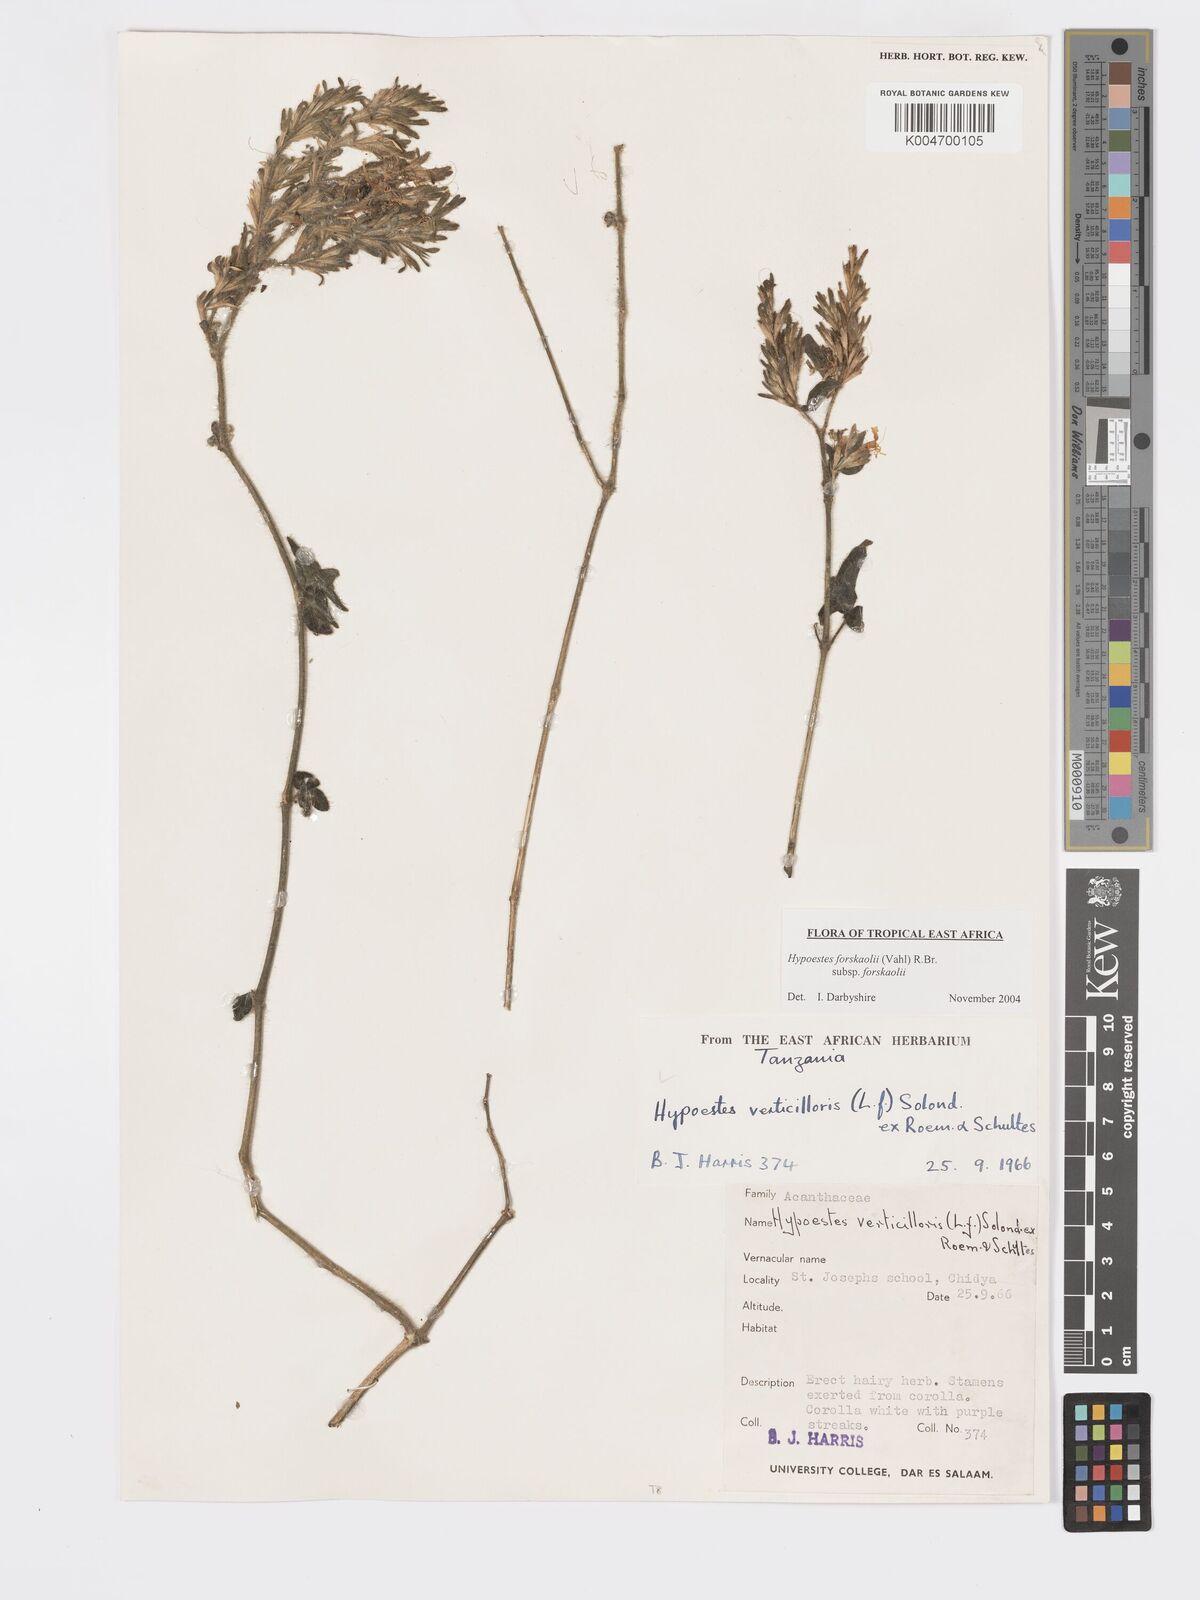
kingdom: Plantae
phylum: Tracheophyta
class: Magnoliopsida
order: Lamiales
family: Acanthaceae
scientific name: Acanthaceae
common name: Acanthaceae
